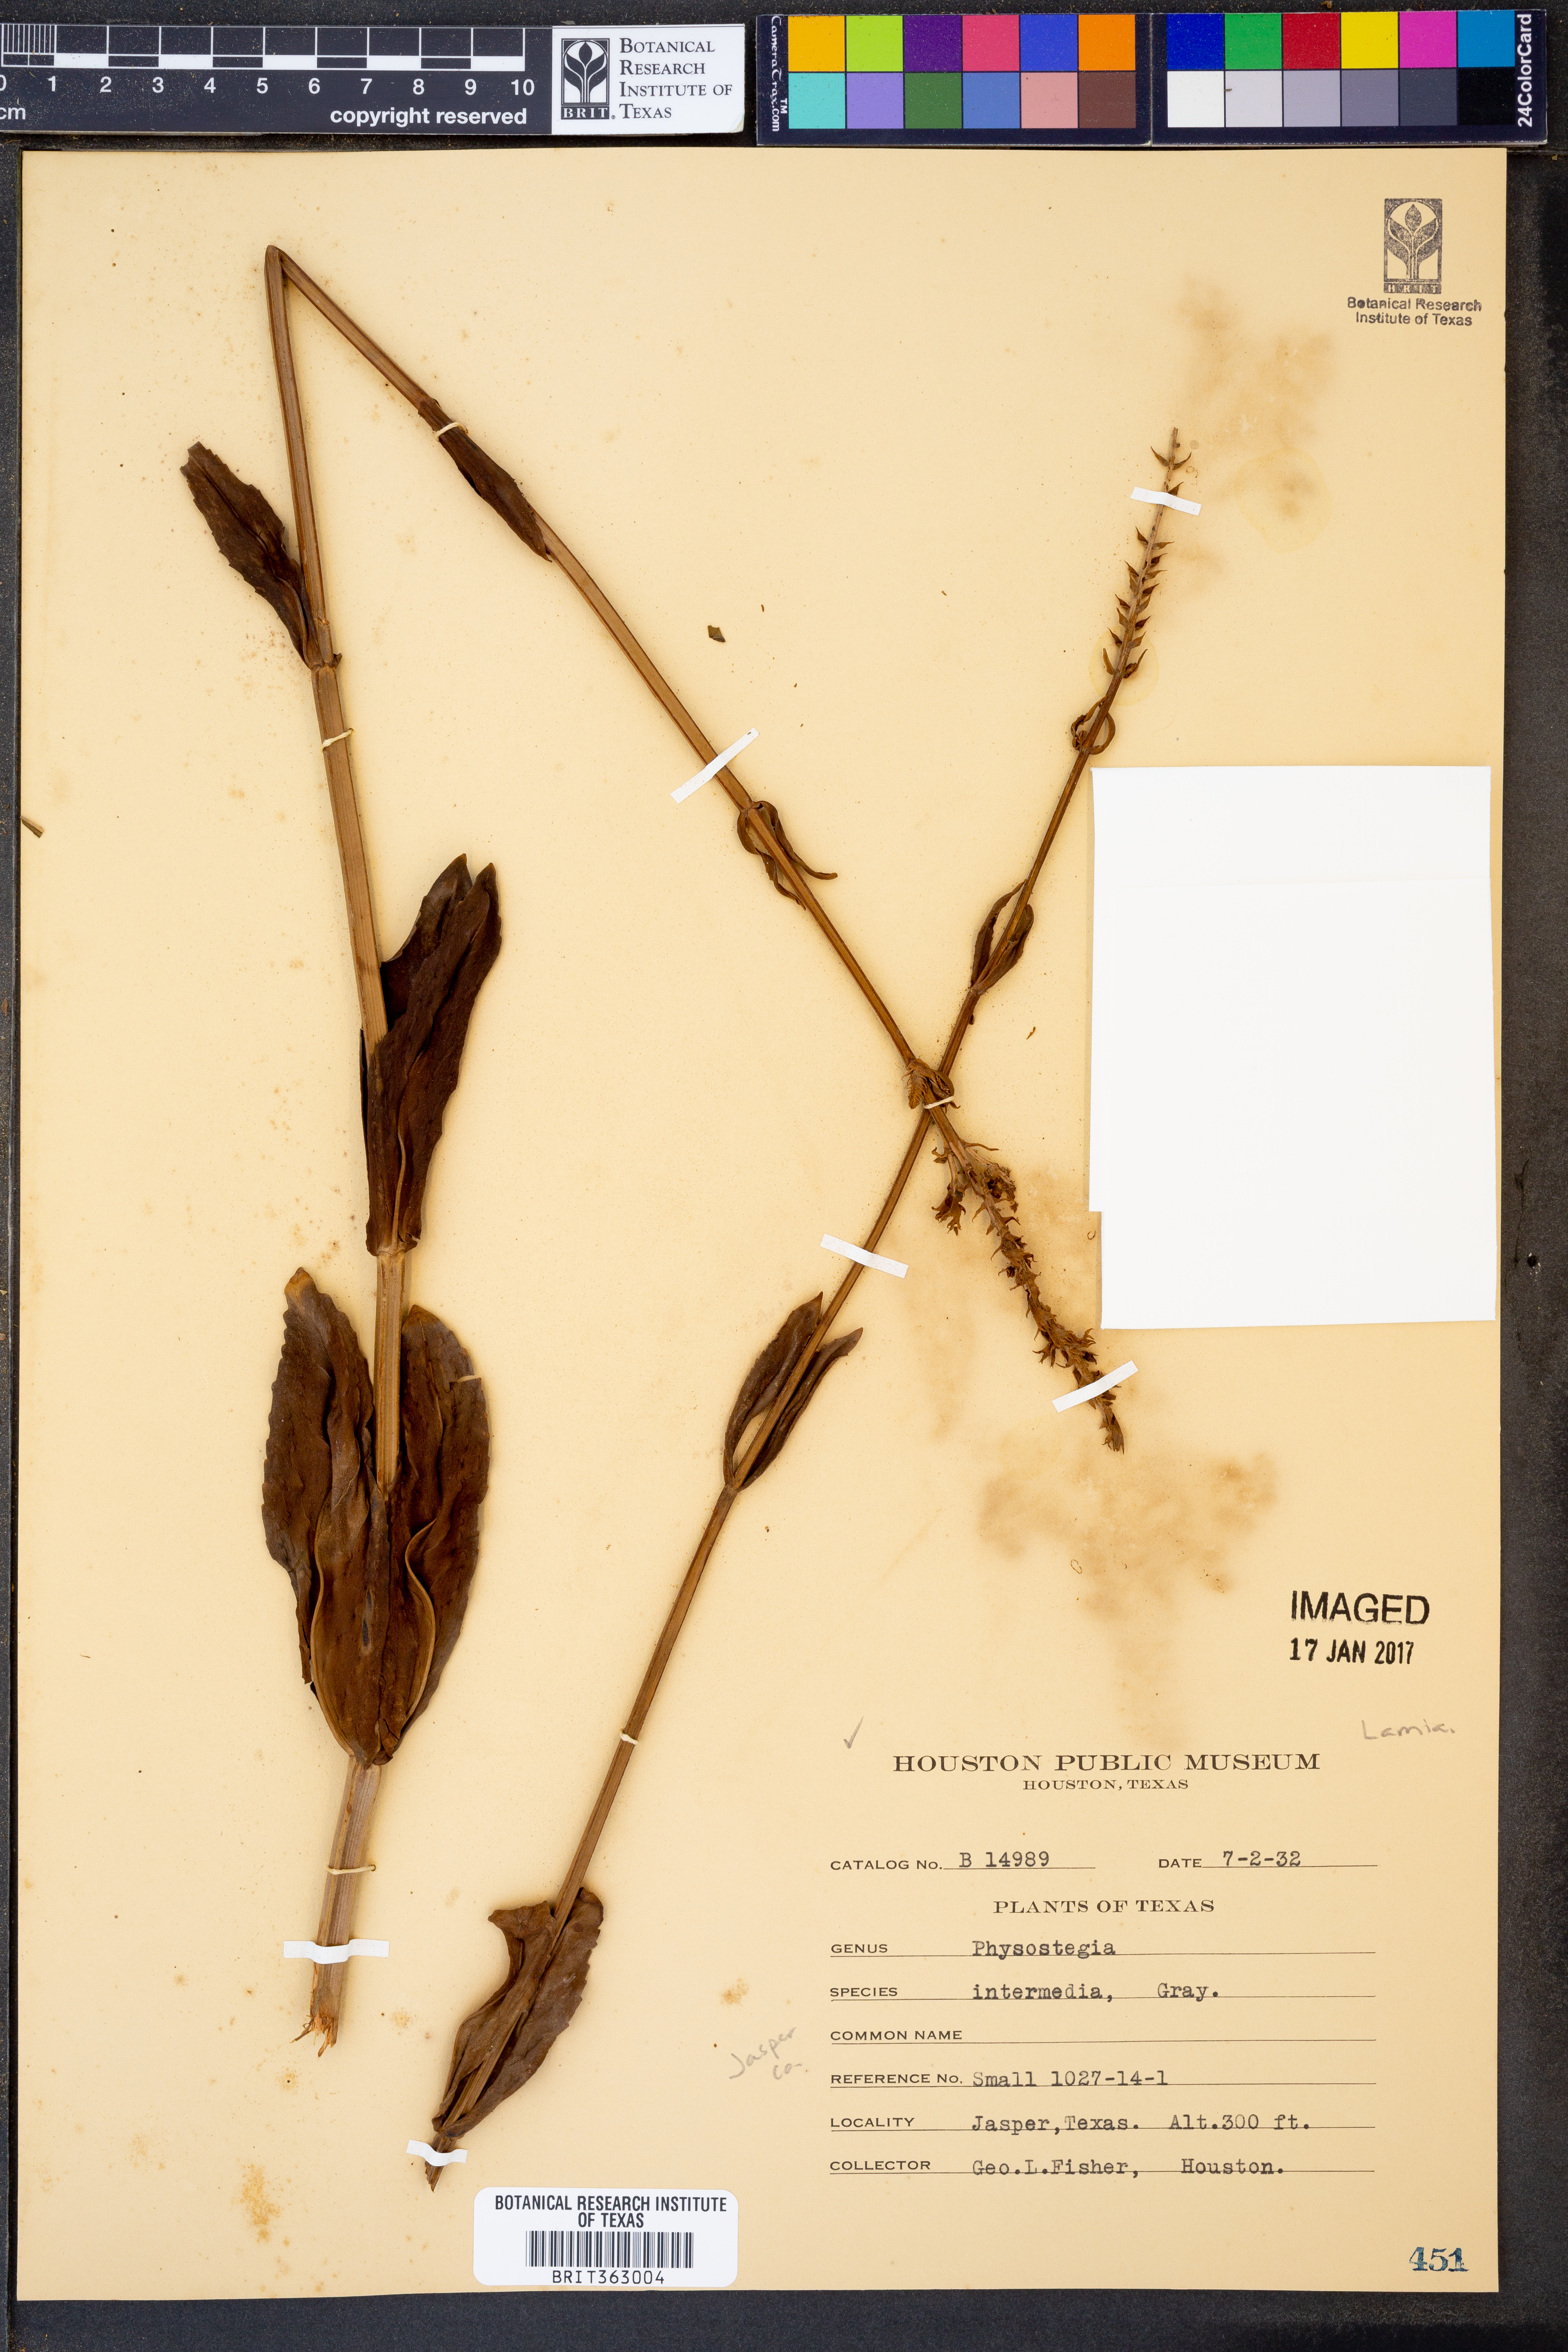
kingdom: Plantae
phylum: Tracheophyta
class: Magnoliopsida
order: Lamiales
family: Lamiaceae
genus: Physostegia
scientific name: Physostegia intermedia
